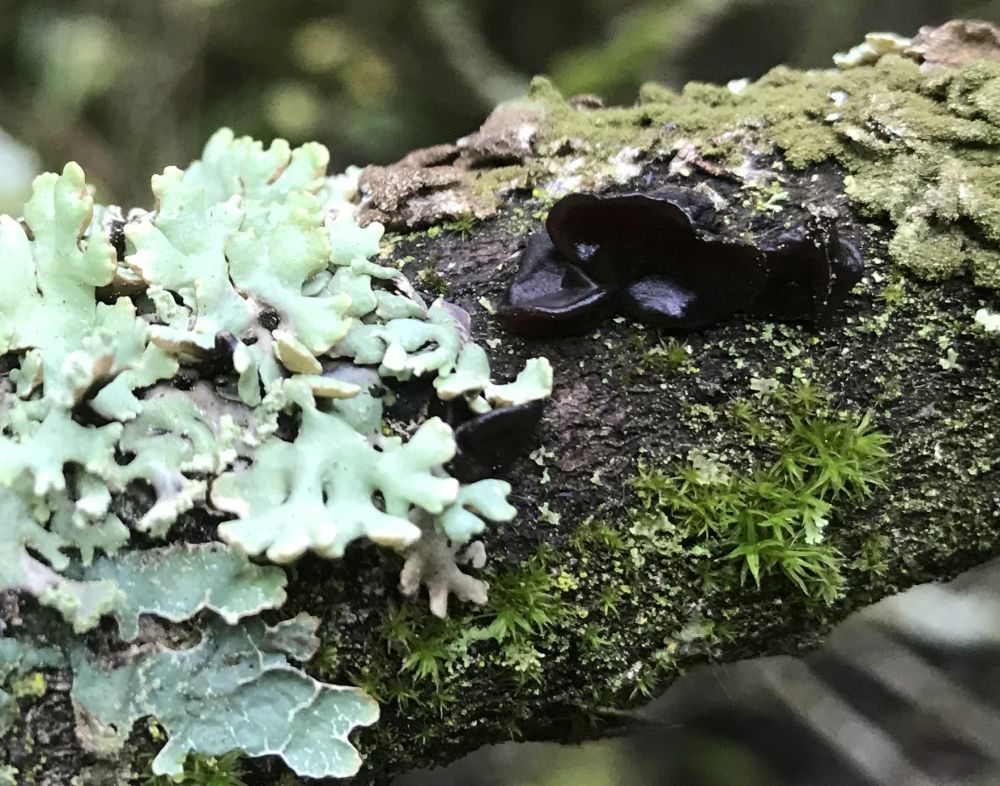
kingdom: Fungi
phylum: Basidiomycota
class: Agaricomycetes
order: Auriculariales
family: Auriculariaceae
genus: Exidia
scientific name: Exidia nigricans
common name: almindelig bævretop
